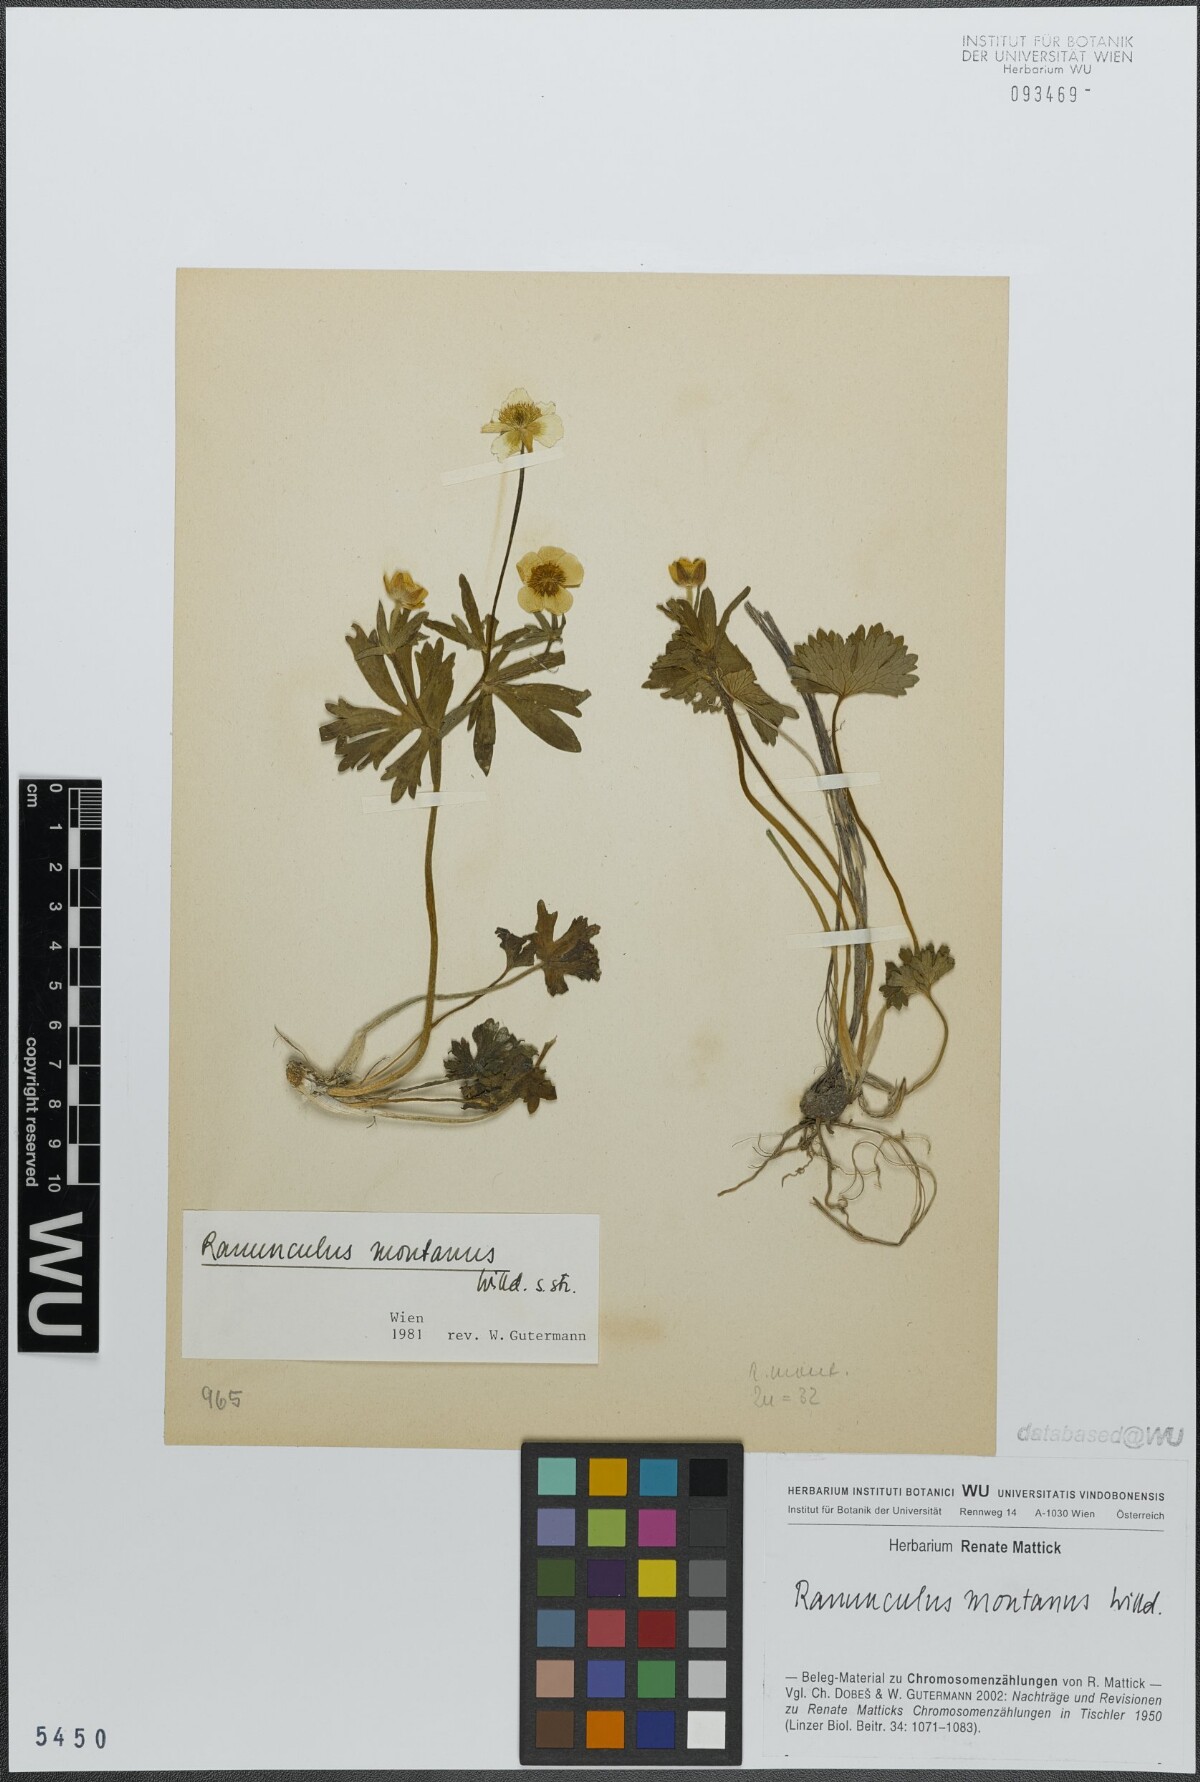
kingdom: Plantae
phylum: Tracheophyta
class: Magnoliopsida
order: Ranunculales
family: Ranunculaceae
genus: Ranunculus
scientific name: Ranunculus montanus
